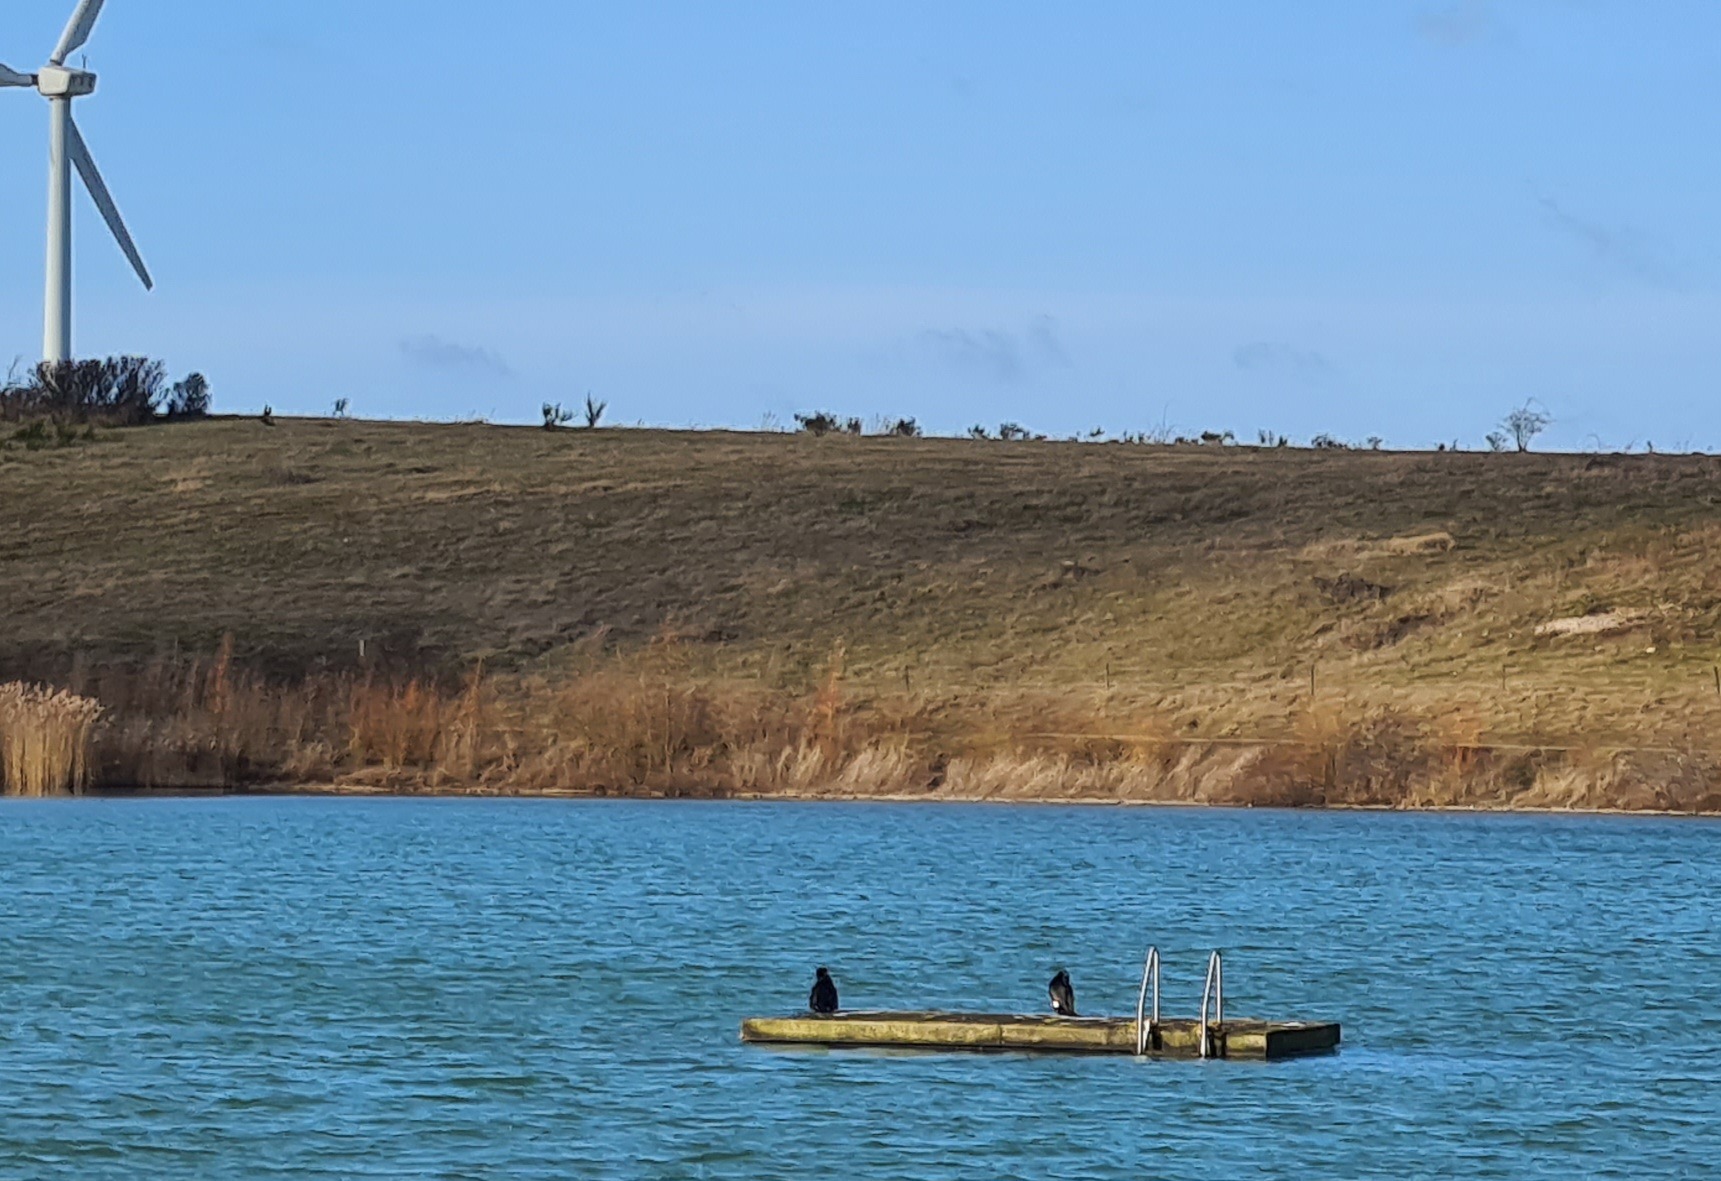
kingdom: Animalia
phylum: Chordata
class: Aves
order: Suliformes
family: Phalacrocoracidae
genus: Phalacrocorax
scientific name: Phalacrocorax carbo
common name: Skarv
